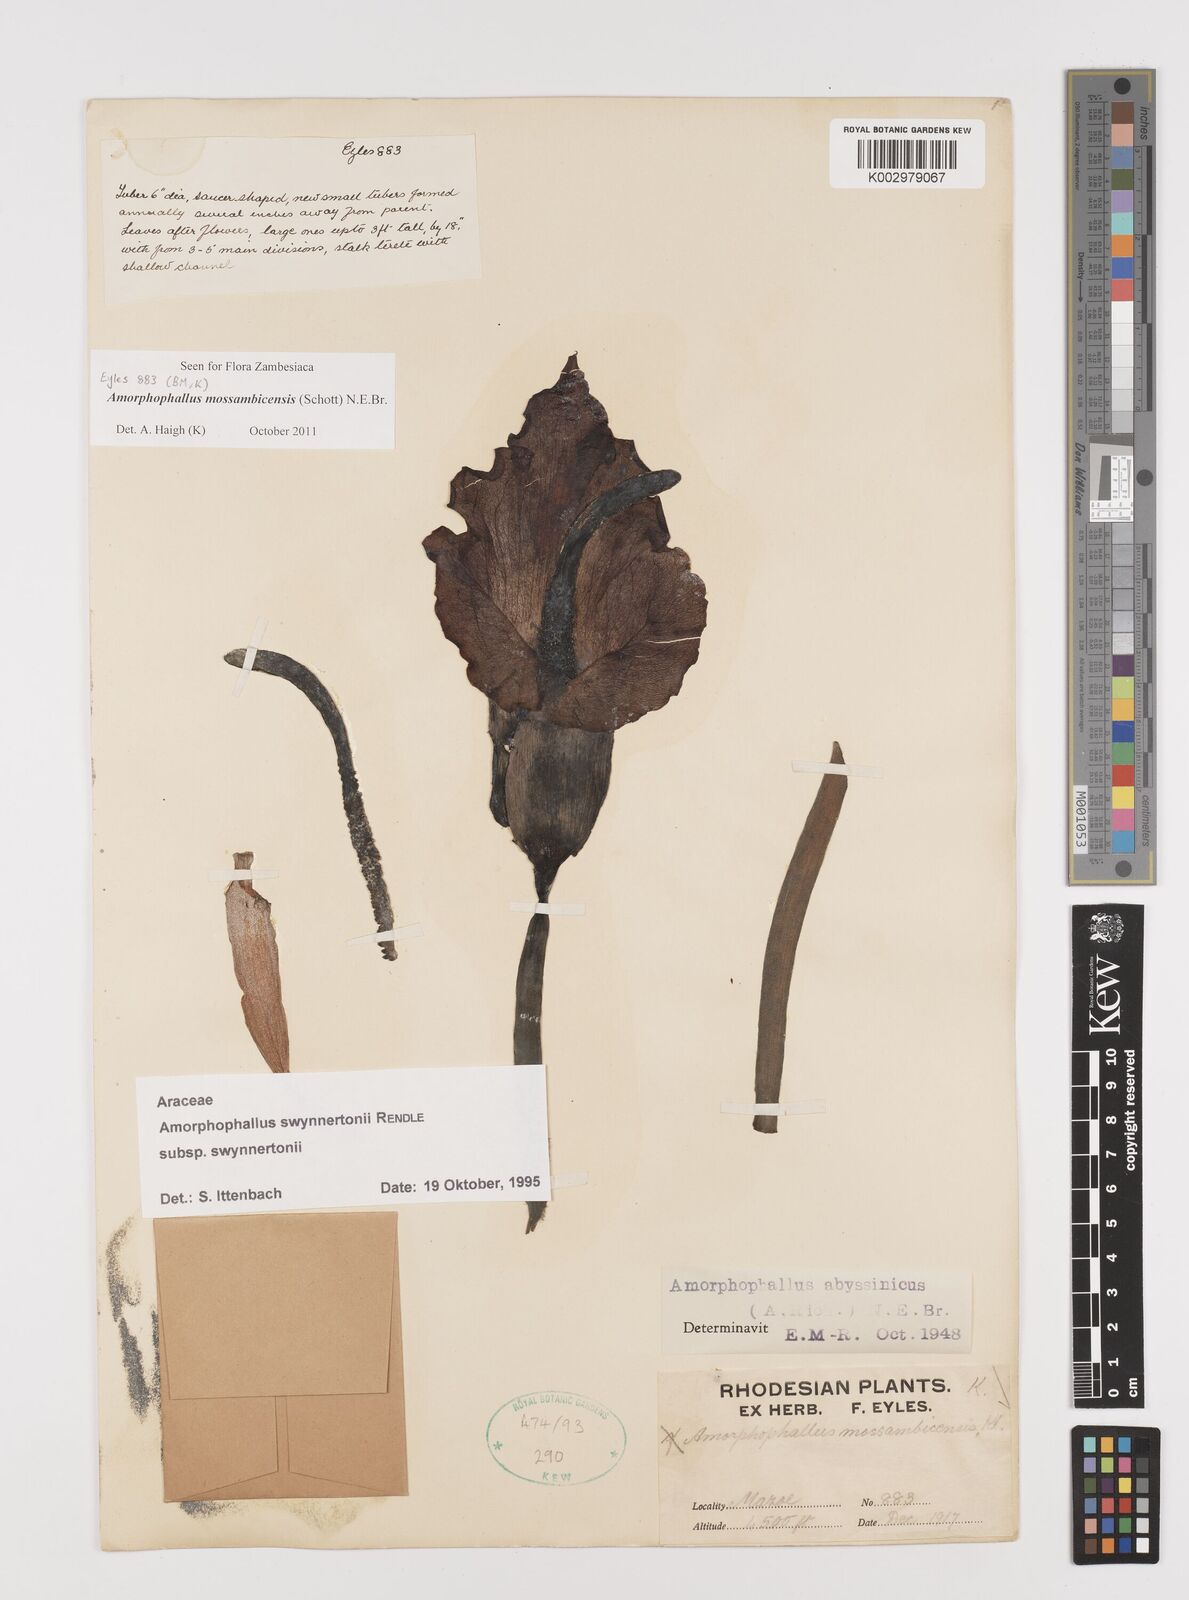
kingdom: Plantae
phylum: Tracheophyta
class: Liliopsida
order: Alismatales
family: Araceae
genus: Amorphophallus
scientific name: Amorphophallus mossambicensis
